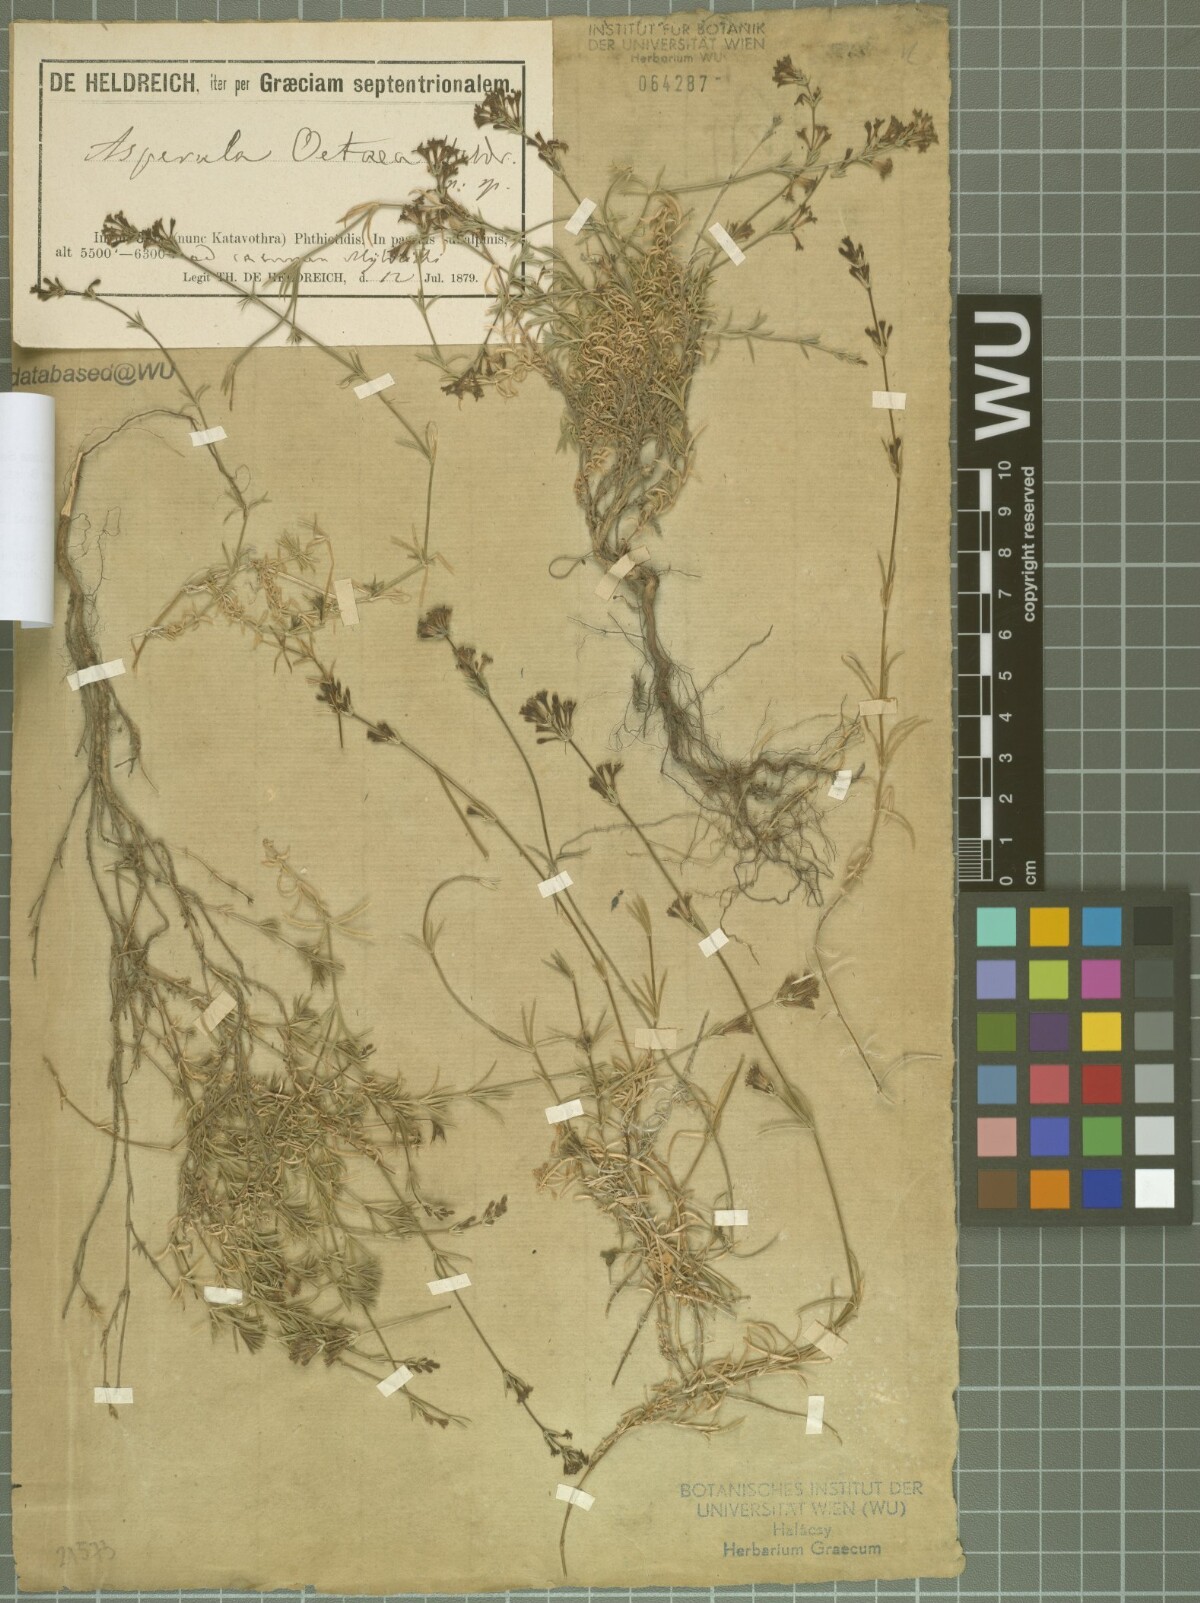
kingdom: Plantae
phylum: Tracheophyta
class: Magnoliopsida
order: Gentianales
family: Rubiaceae
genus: Cynanchica
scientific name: Cynanchica oetaea
